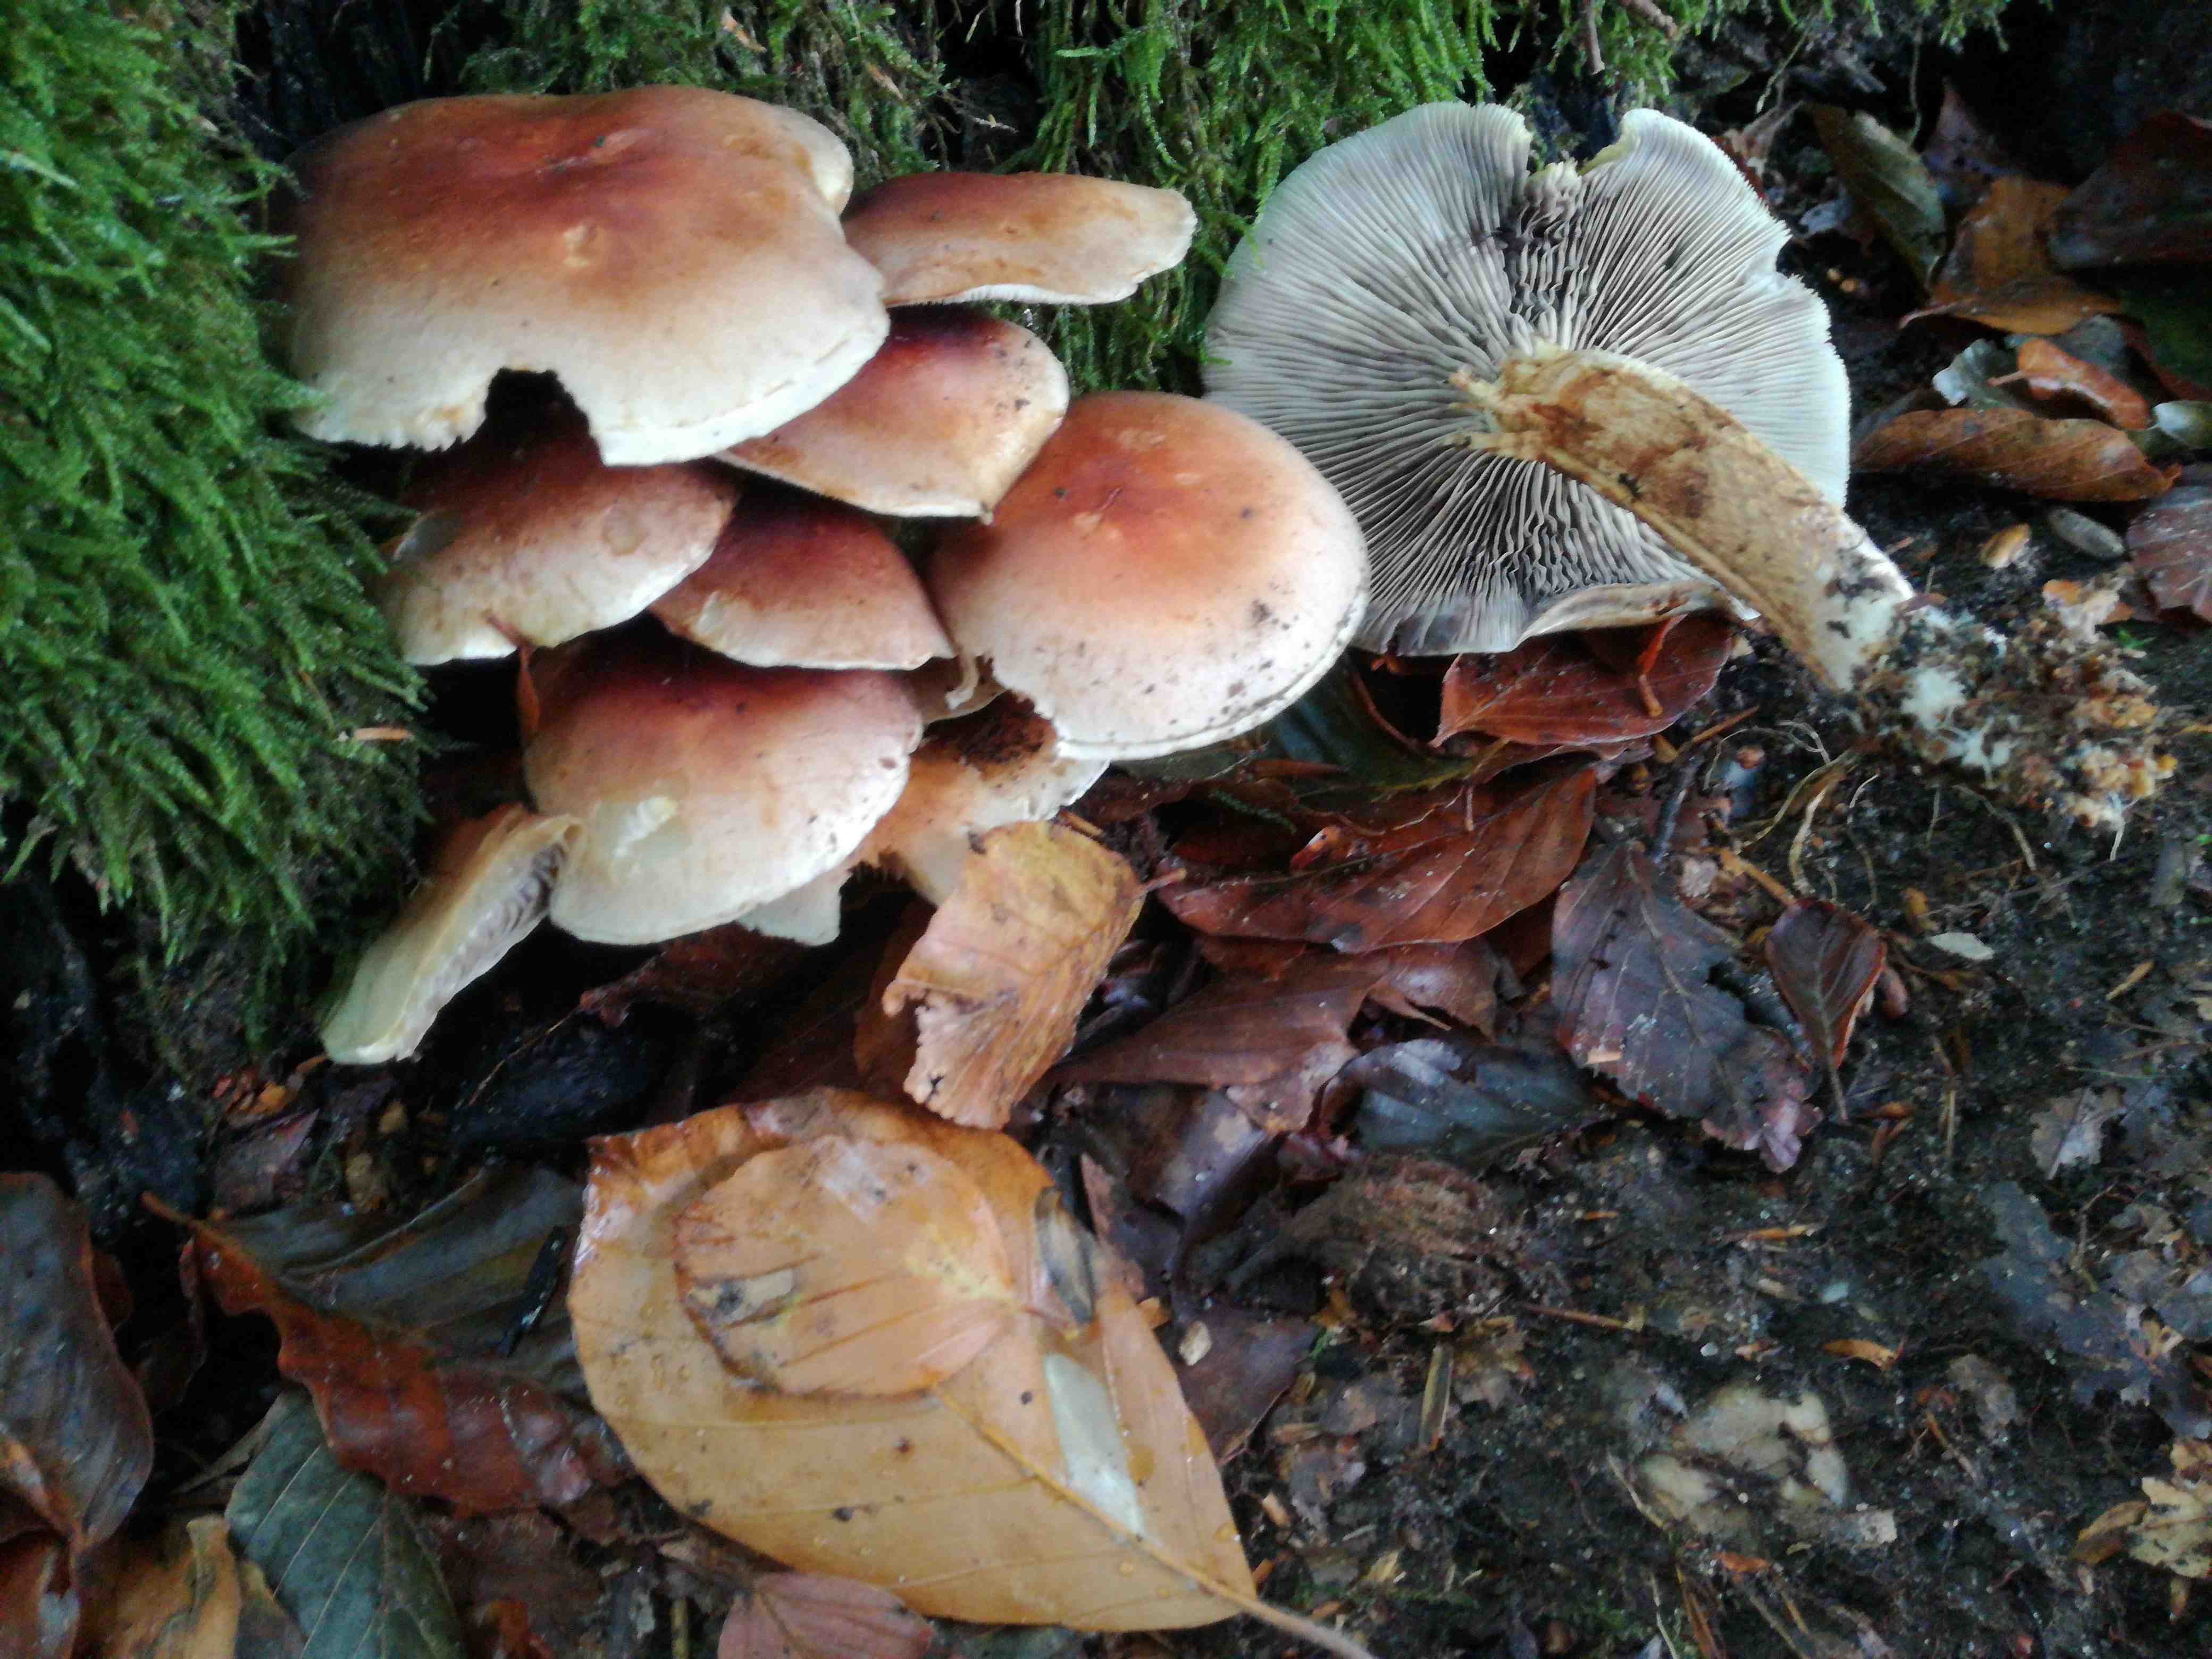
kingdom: Fungi
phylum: Basidiomycota
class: Agaricomycetes
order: Agaricales
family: Strophariaceae
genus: Hypholoma
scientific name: Hypholoma lateritium
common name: teglrød svovlhat
